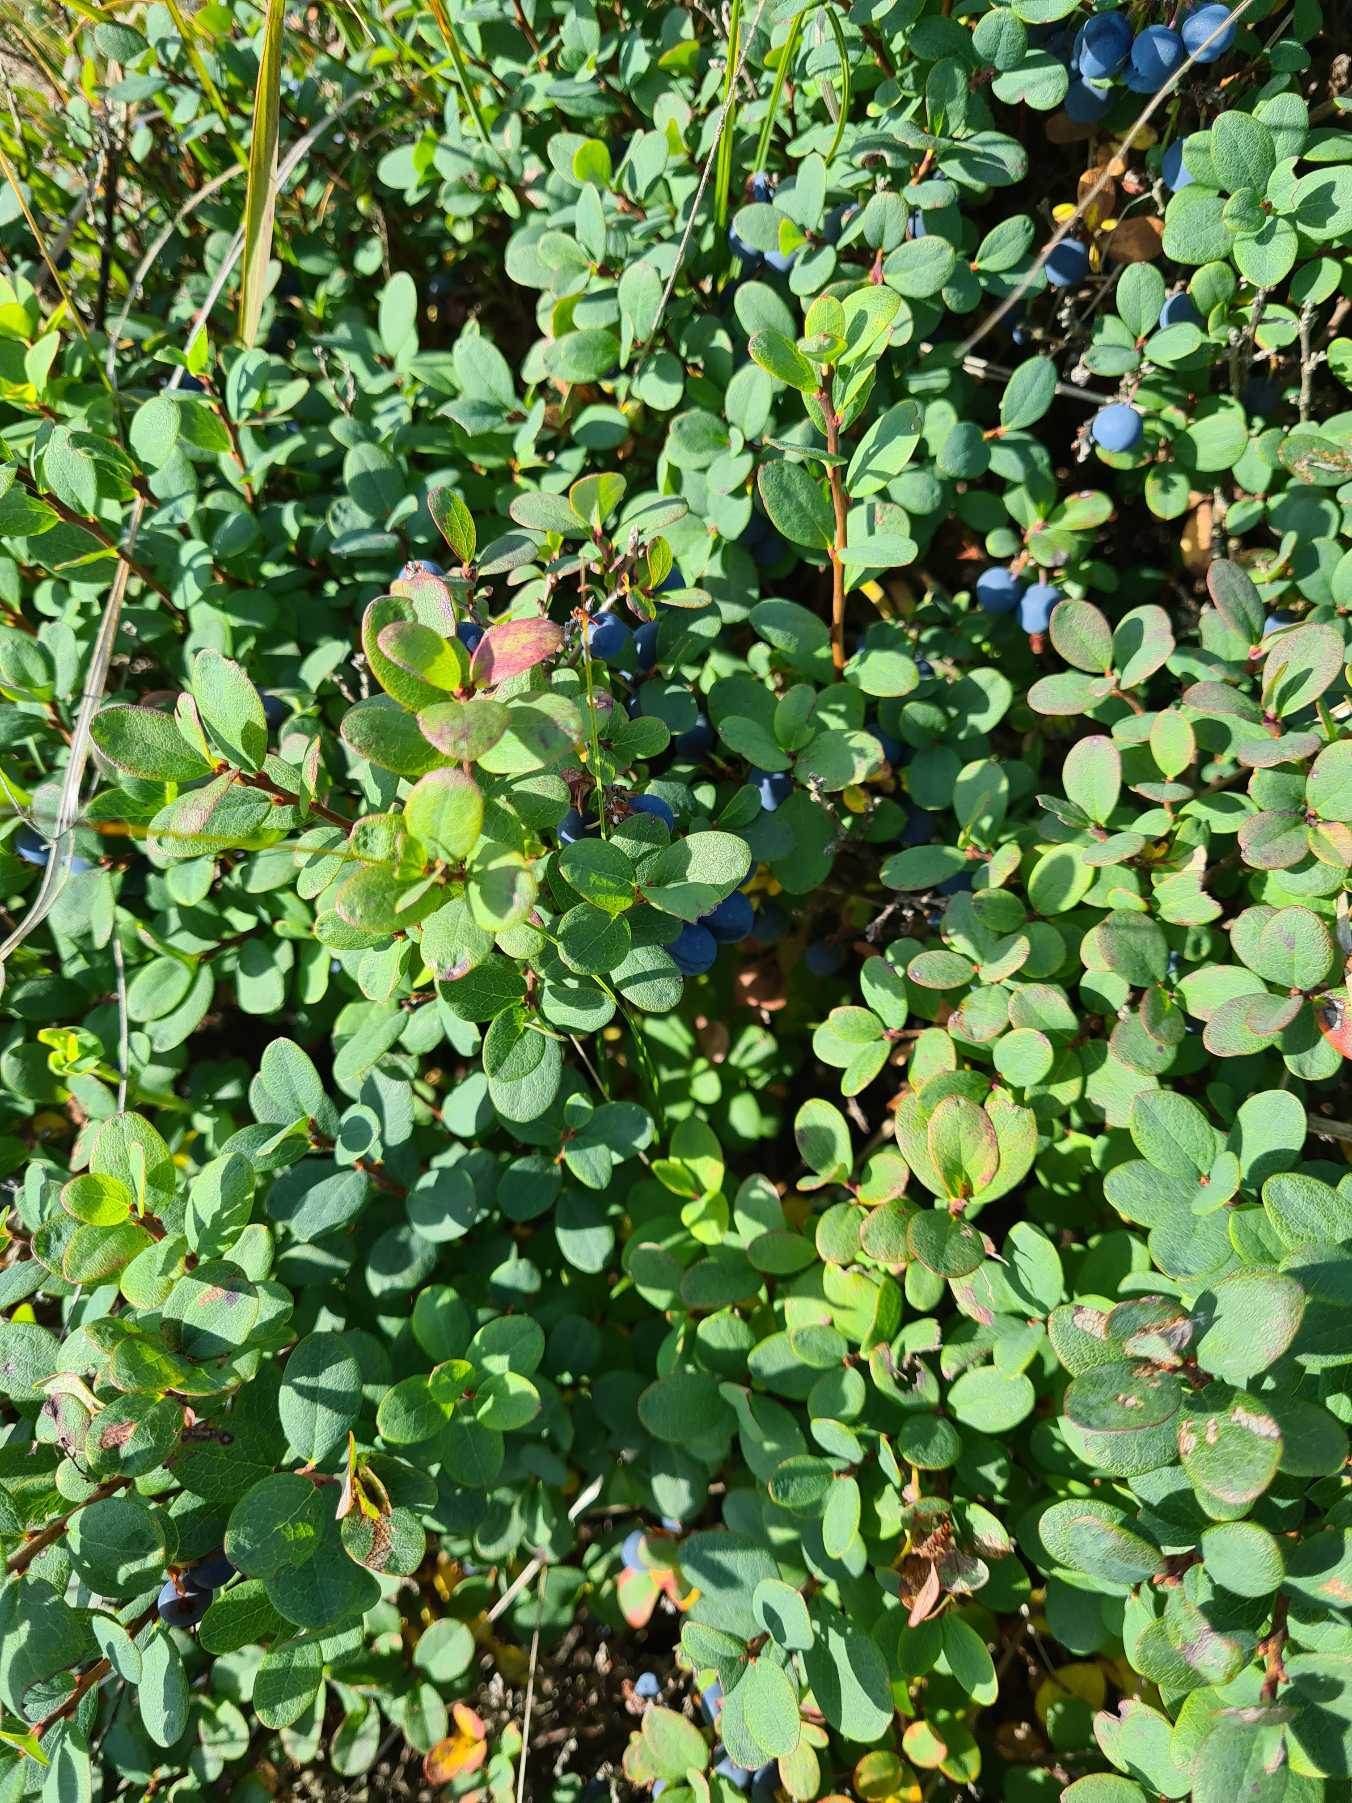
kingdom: Plantae
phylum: Tracheophyta
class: Magnoliopsida
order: Ericales
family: Ericaceae
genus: Vaccinium
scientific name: Vaccinium uliginosum
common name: Mose-bølle
